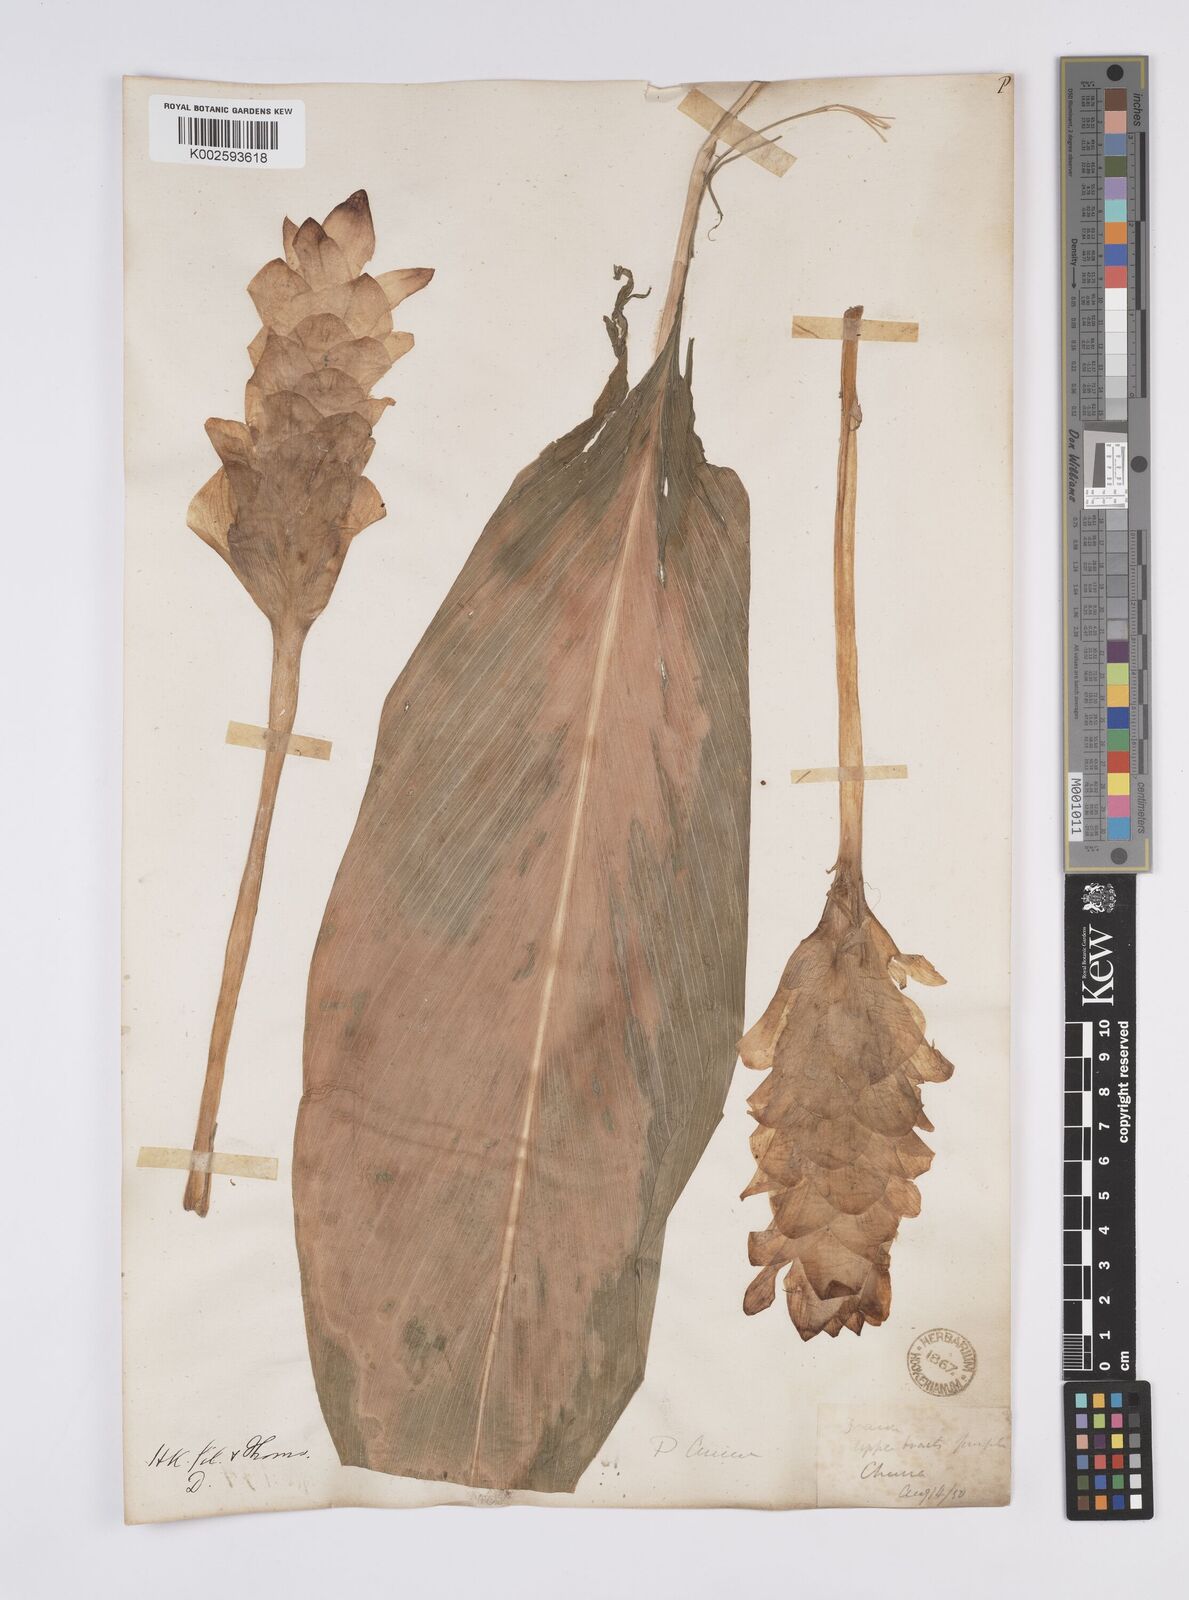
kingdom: Plantae
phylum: Tracheophyta
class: Liliopsida
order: Zingiberales
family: Zingiberaceae
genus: Curcuma
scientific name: Curcuma
